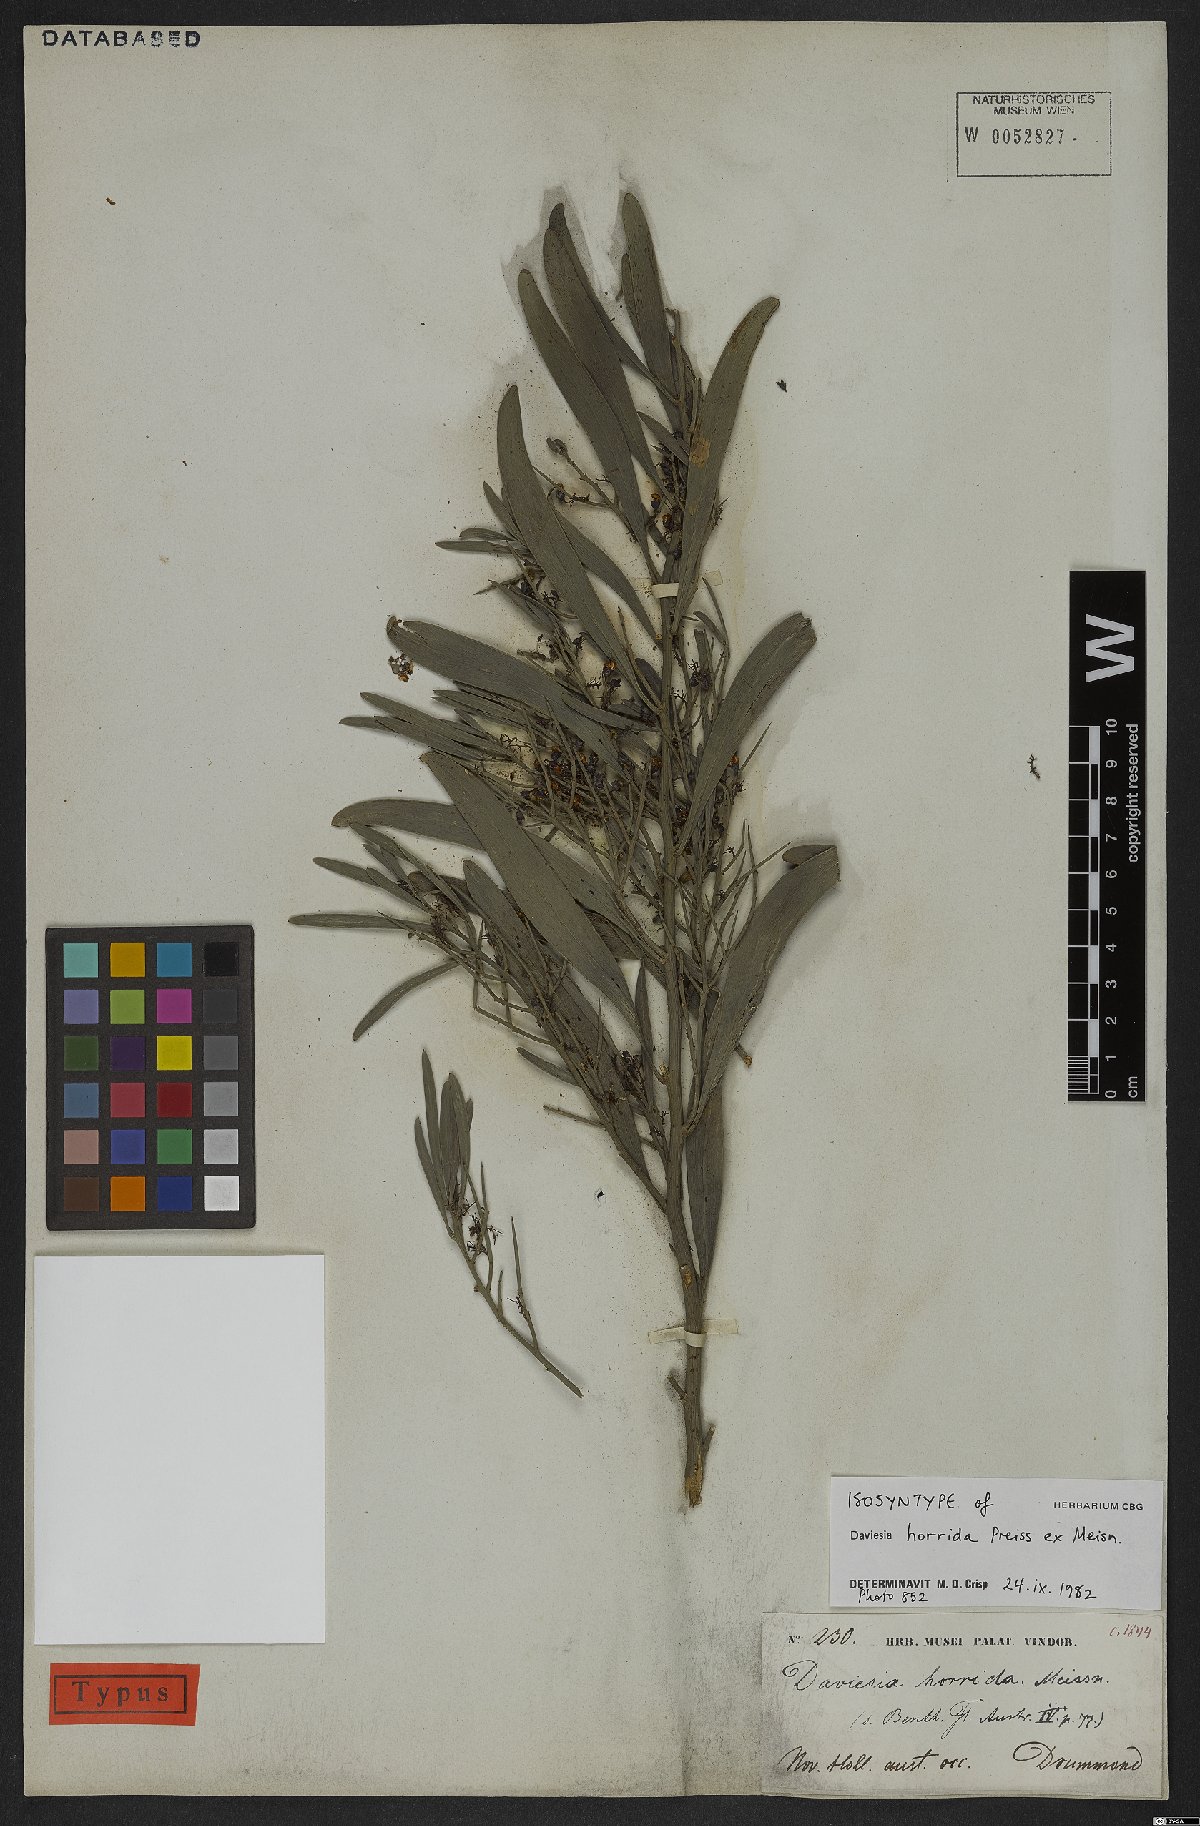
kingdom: Plantae
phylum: Tracheophyta
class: Magnoliopsida
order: Fabales
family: Fabaceae
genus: Daviesia
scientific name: Daviesia horrida
